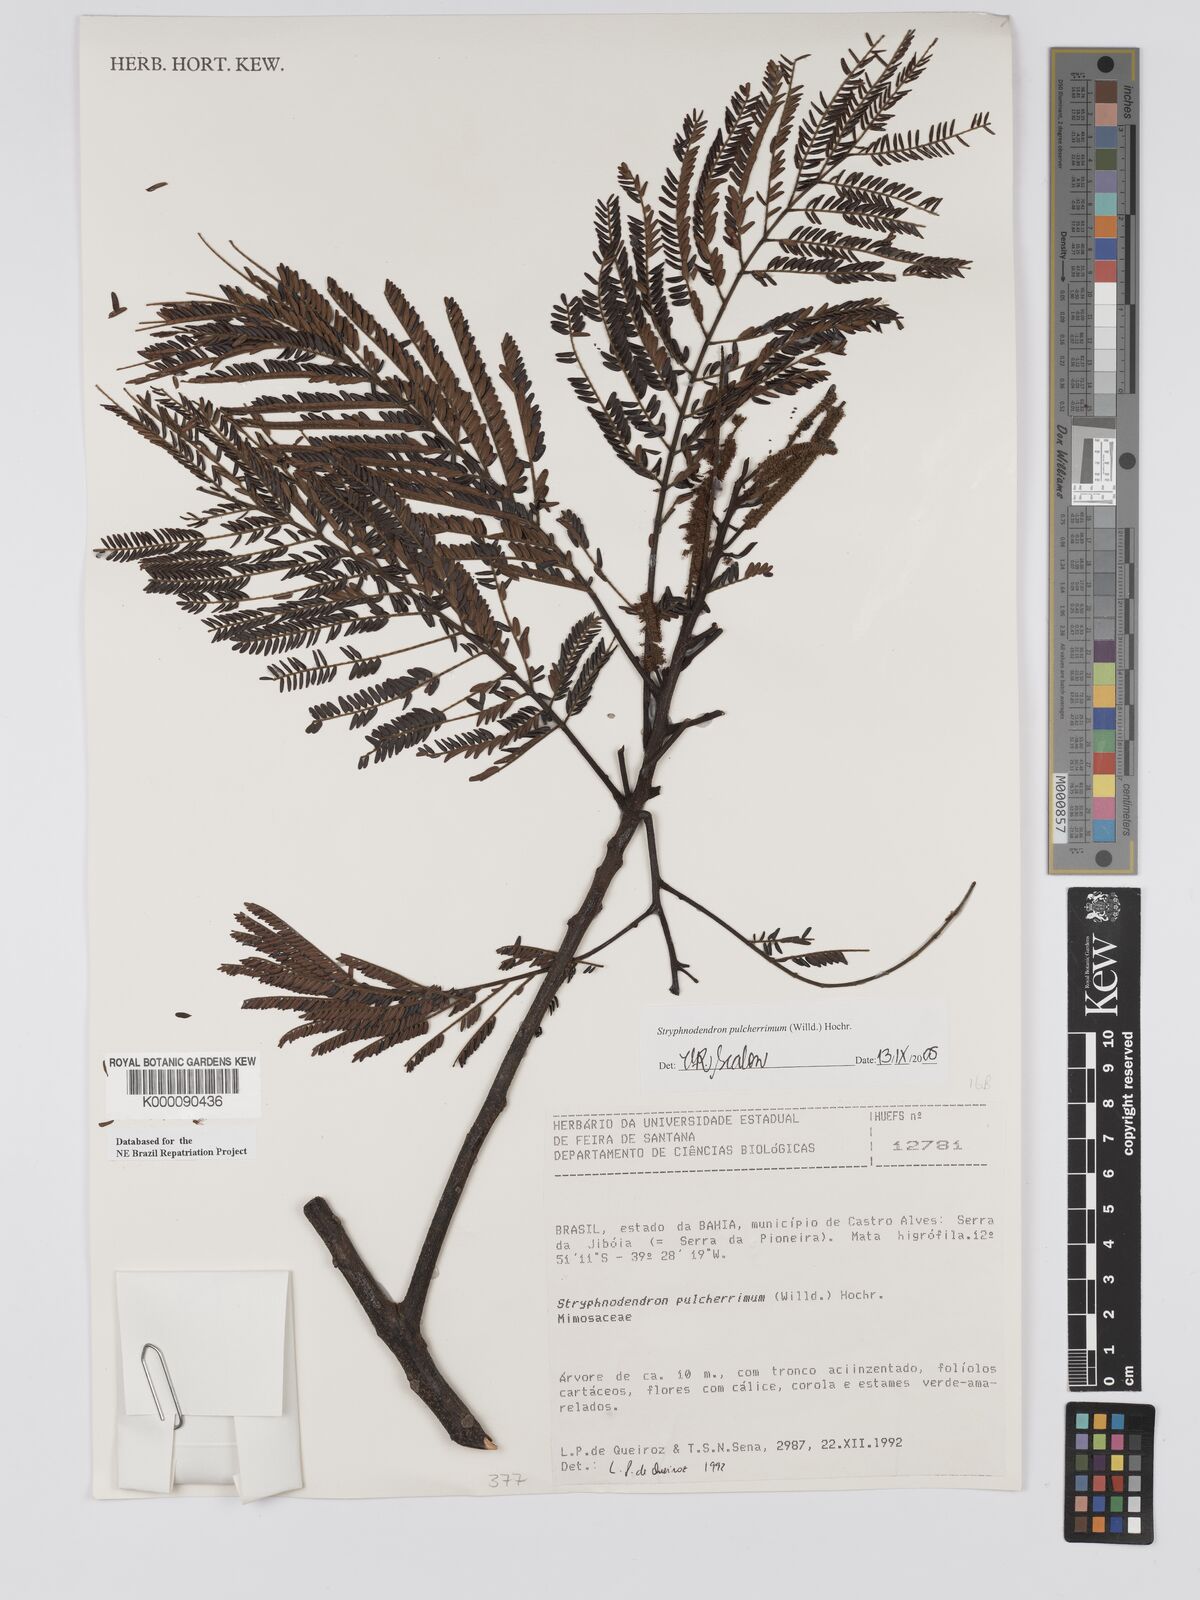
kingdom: Plantae
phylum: Tracheophyta
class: Magnoliopsida
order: Fabales
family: Fabaceae
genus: Stryphnodendron
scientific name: Stryphnodendron pulcherrimum
